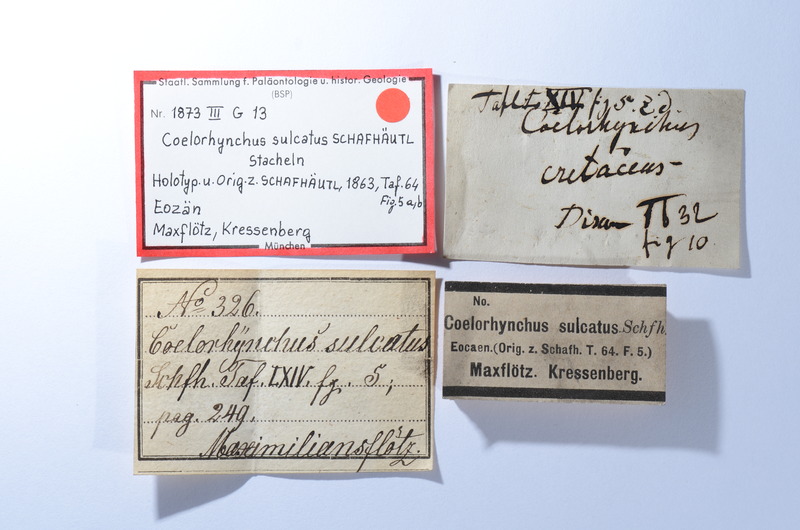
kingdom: Animalia
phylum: Chordata
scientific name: Chordata
